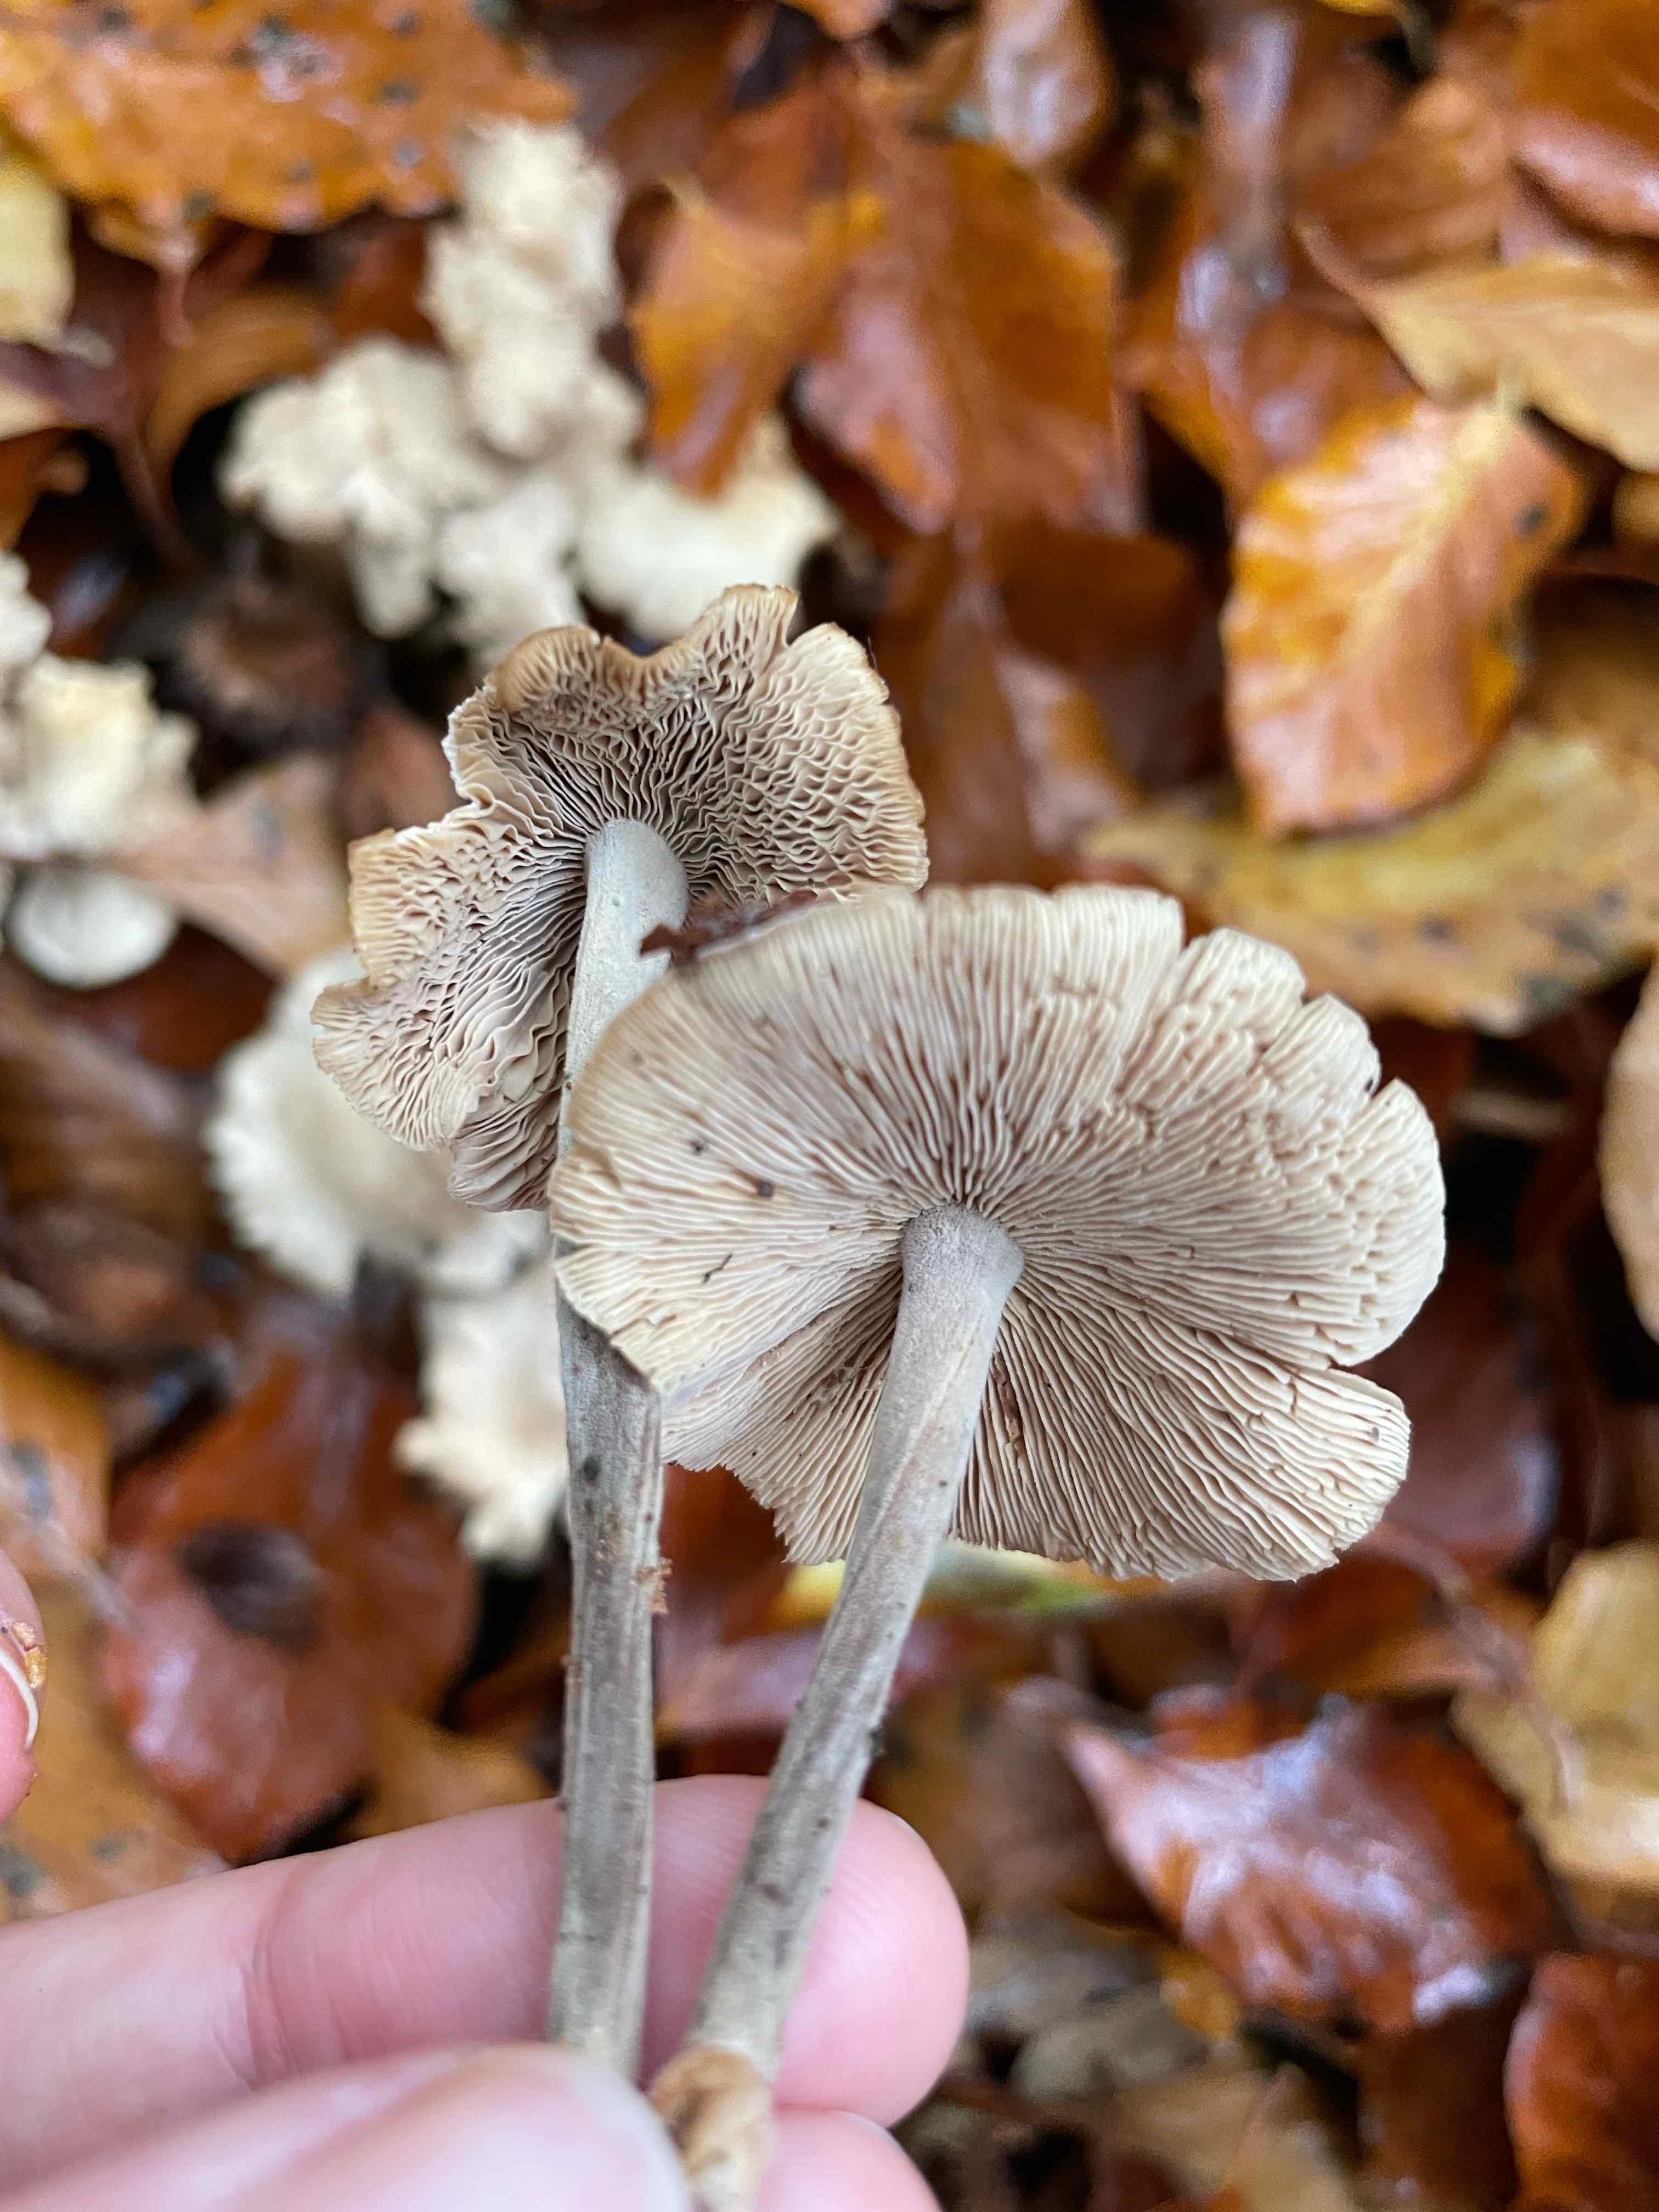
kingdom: Fungi
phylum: Basidiomycota
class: Agaricomycetes
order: Agaricales
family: Omphalotaceae
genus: Collybiopsis
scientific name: Collybiopsis confluens
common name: knippe-fladhat
